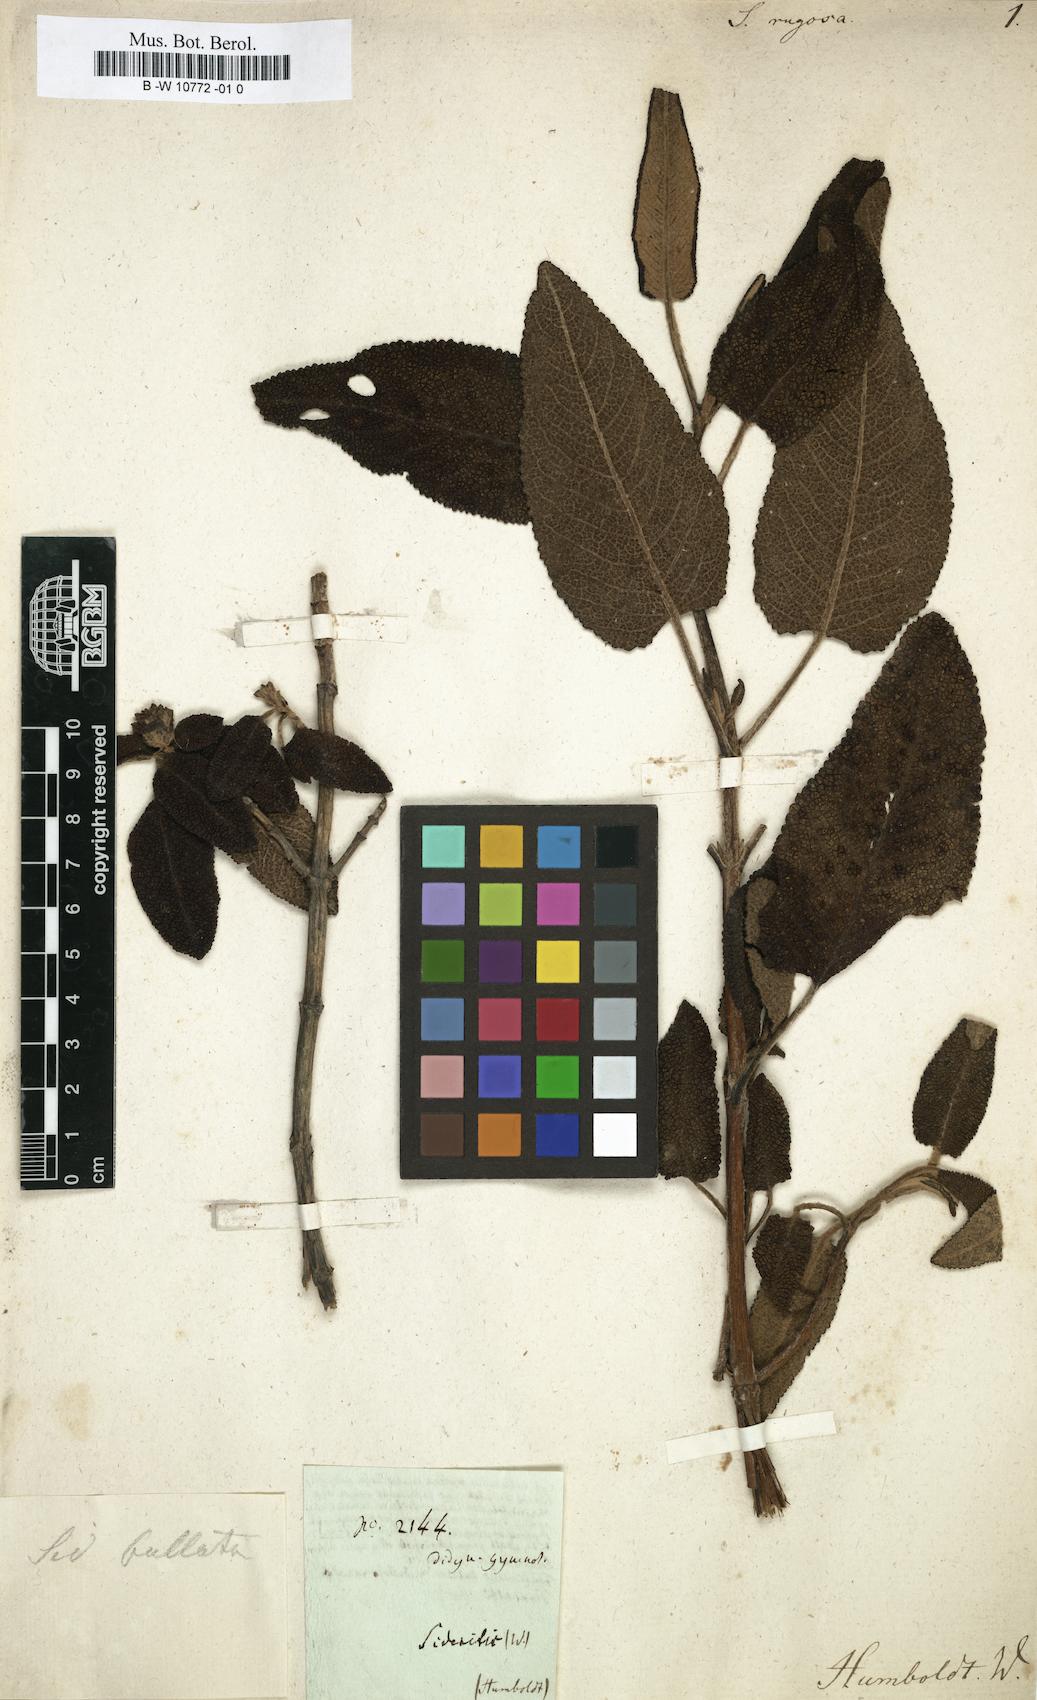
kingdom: Plantae
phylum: Tracheophyta
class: Magnoliopsida
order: Lamiales
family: Lamiaceae
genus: Sideritis
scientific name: Sideritis rugosa
